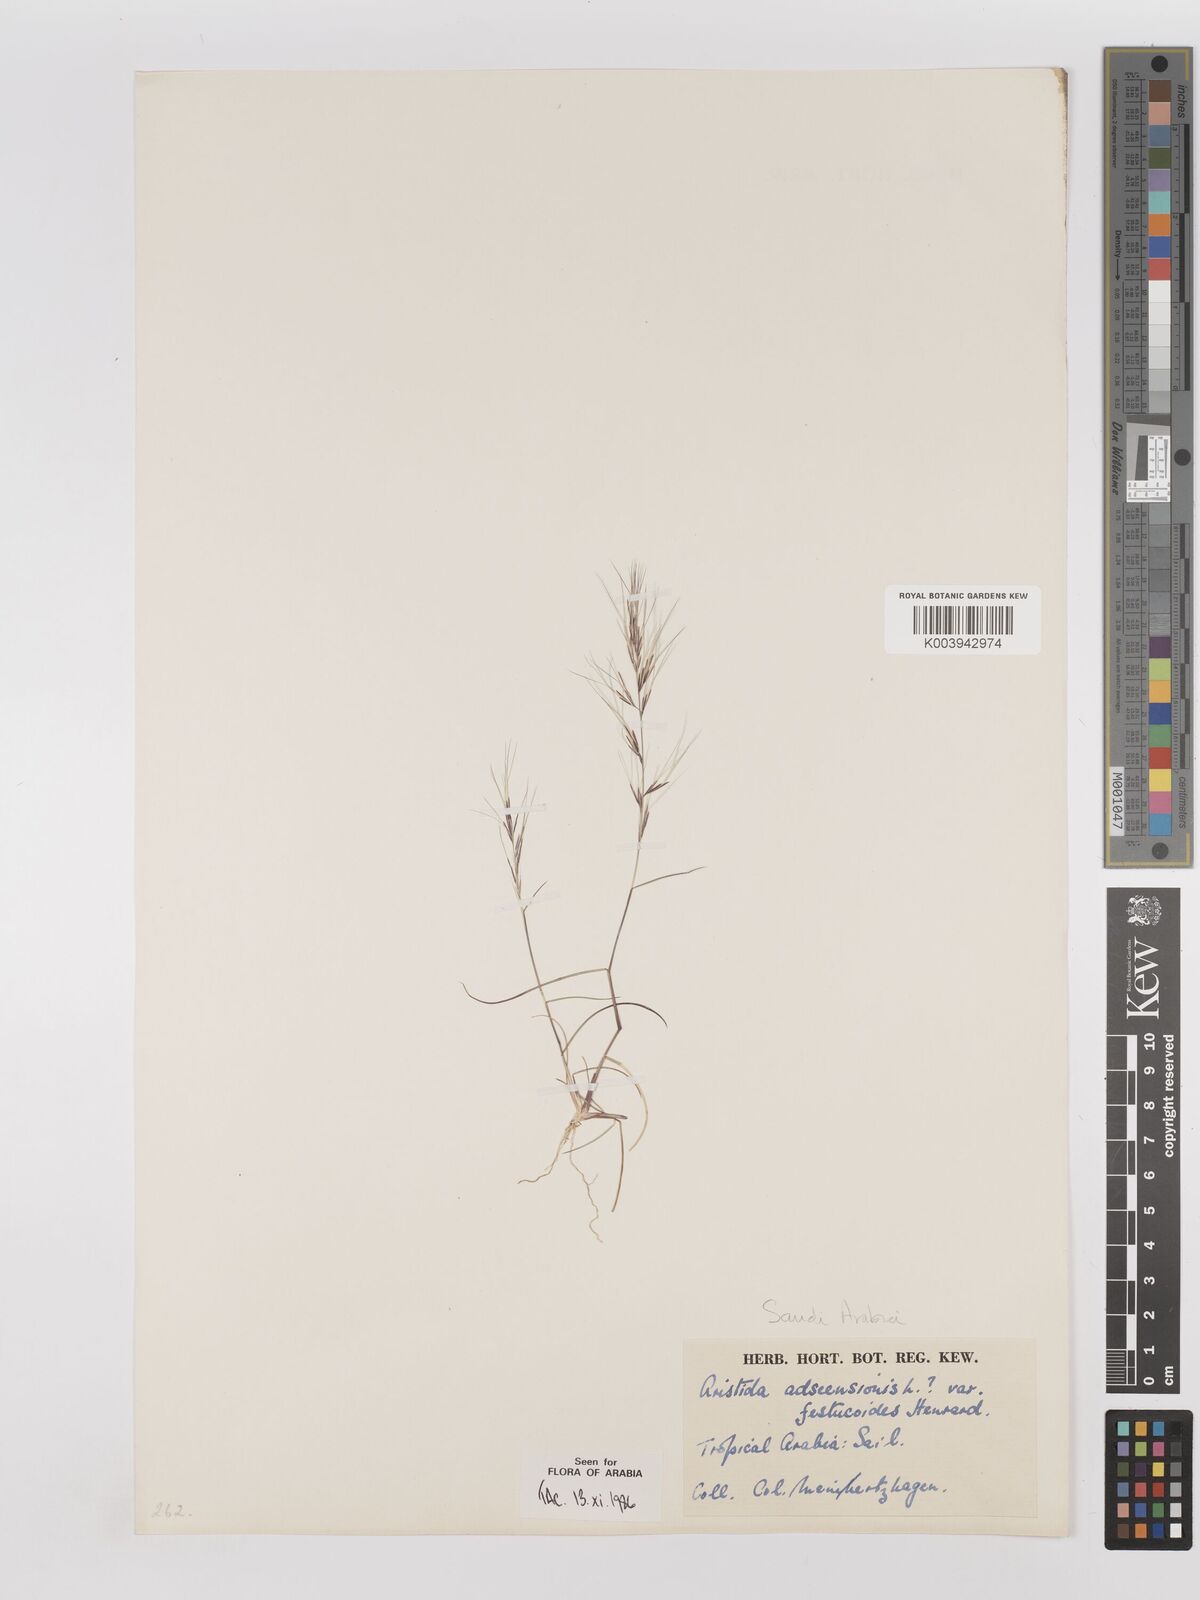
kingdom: Plantae
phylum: Tracheophyta
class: Liliopsida
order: Poales
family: Poaceae
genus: Aristida
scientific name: Aristida adscensionis
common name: Sixweeks threeawn
